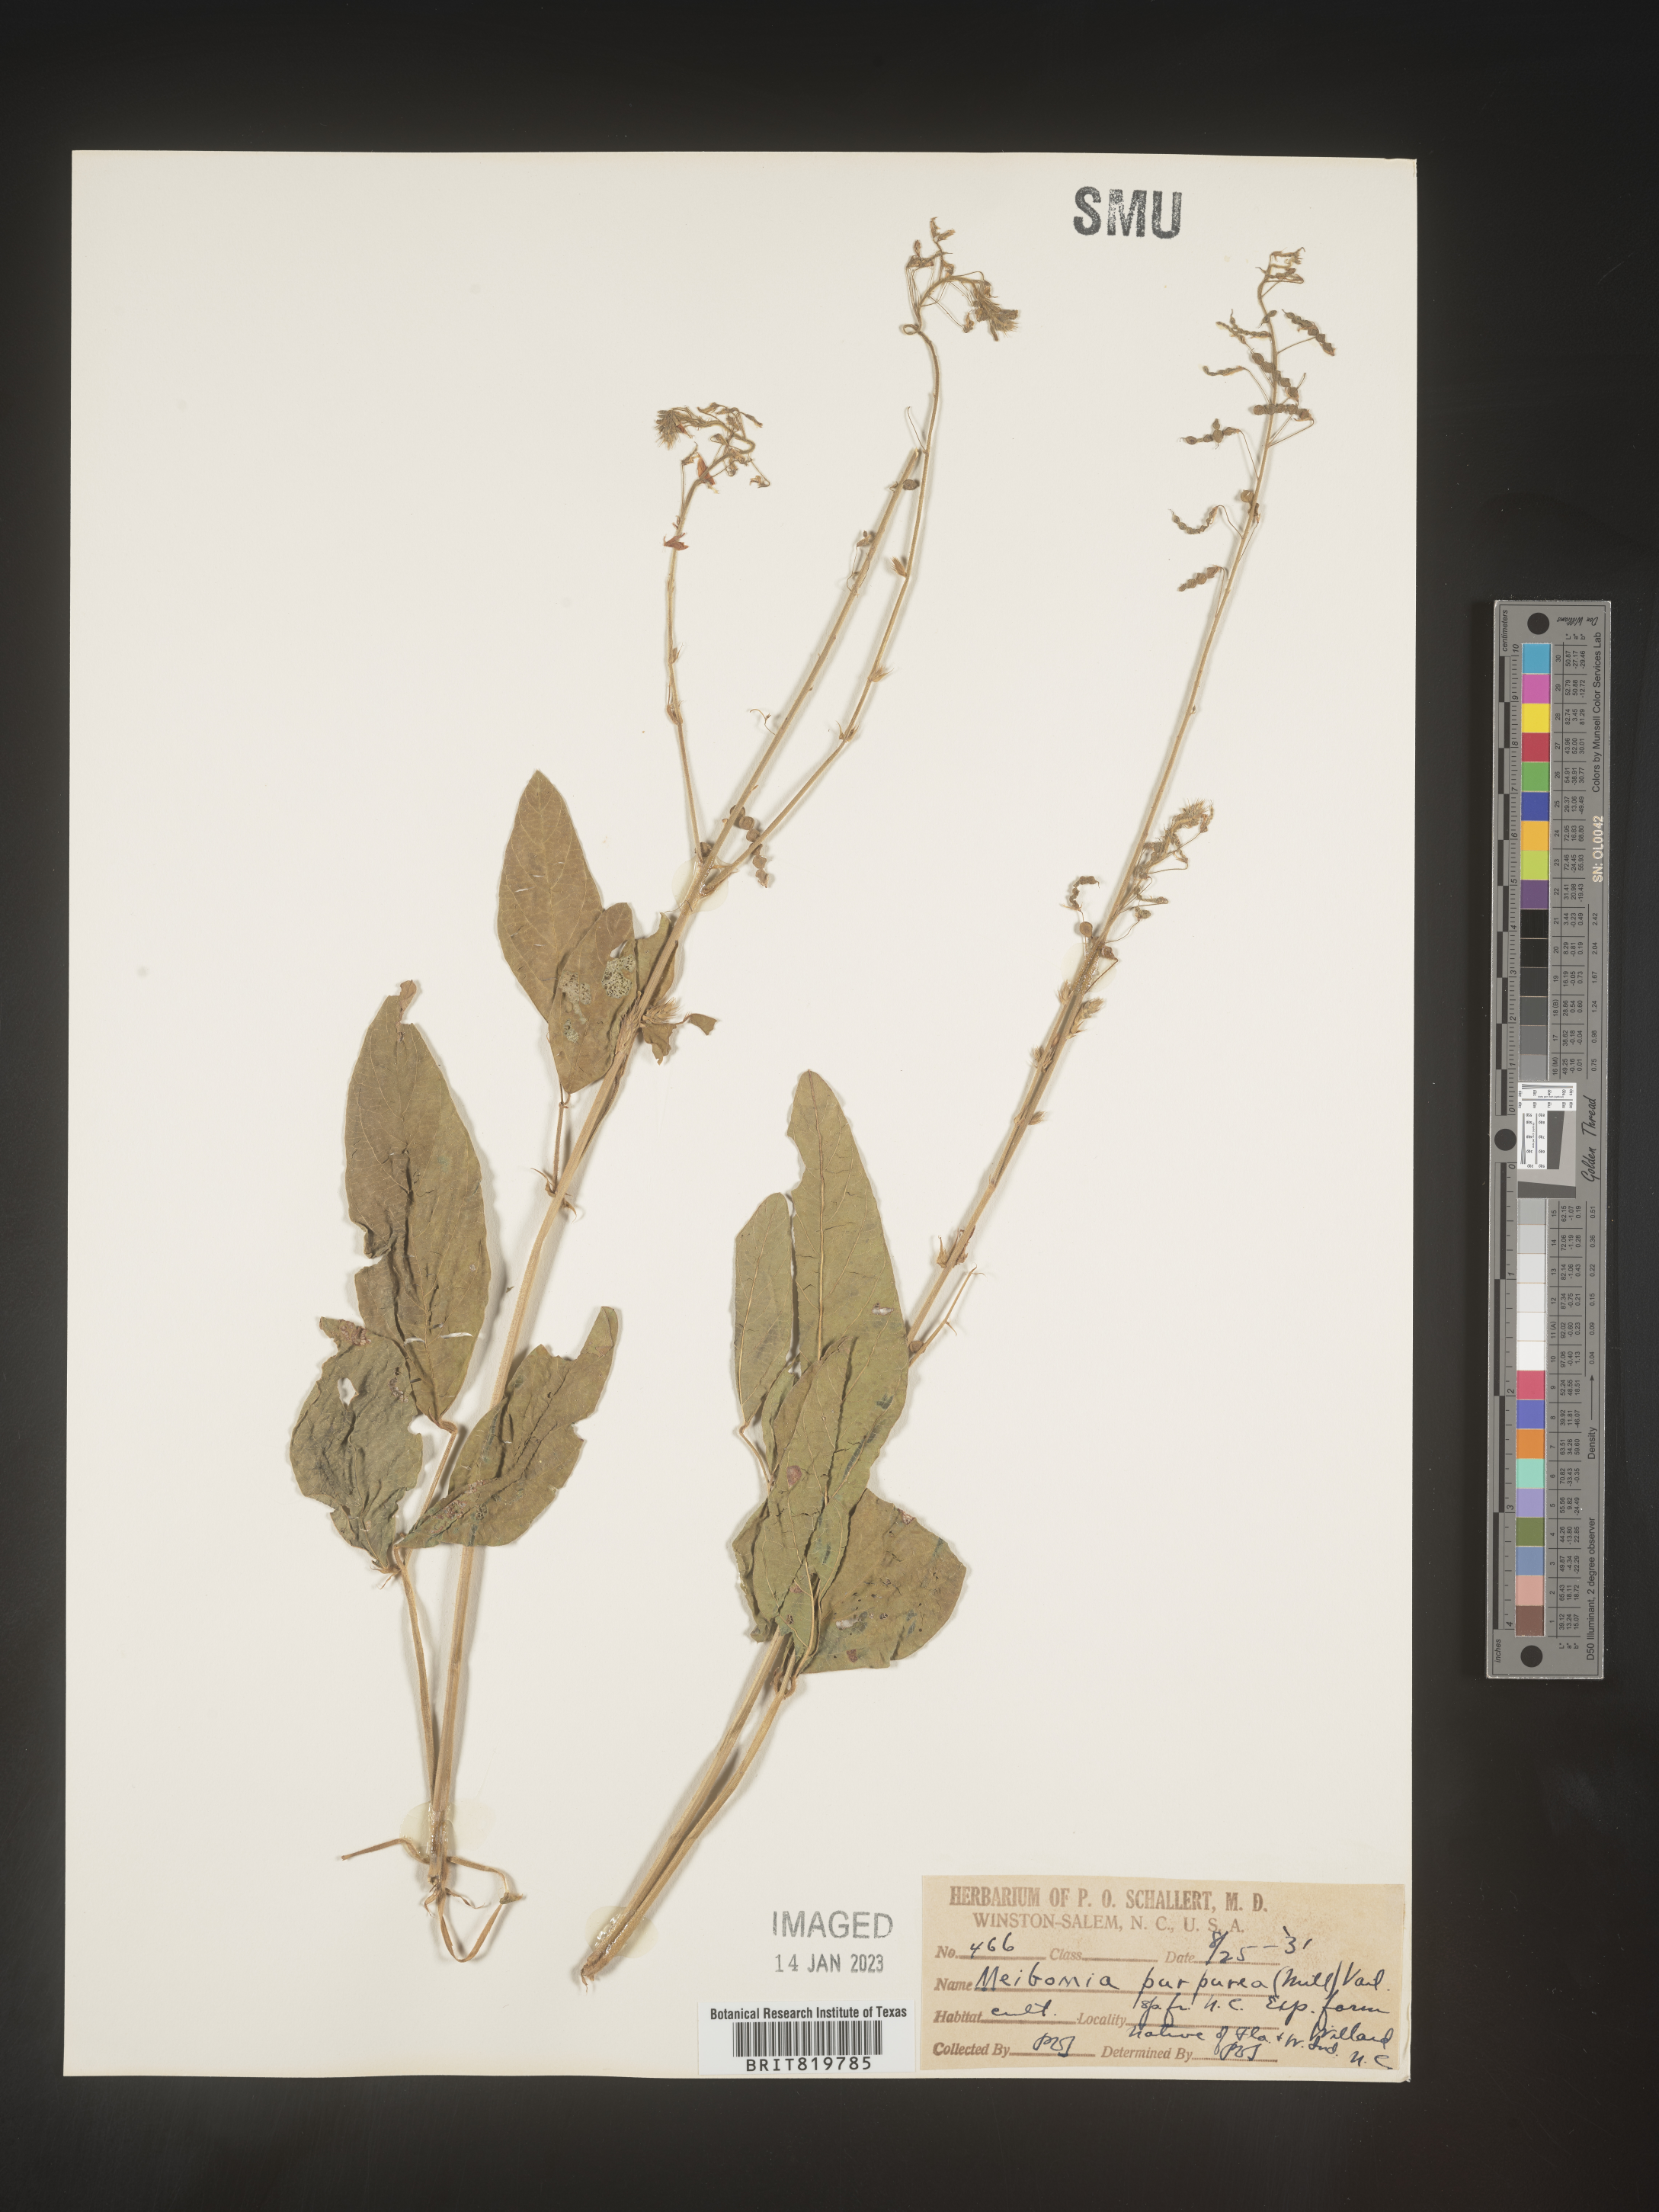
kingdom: Plantae
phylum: Tracheophyta
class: Magnoliopsida
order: Fabales
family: Fabaceae
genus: Desmodium
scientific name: Desmodium
